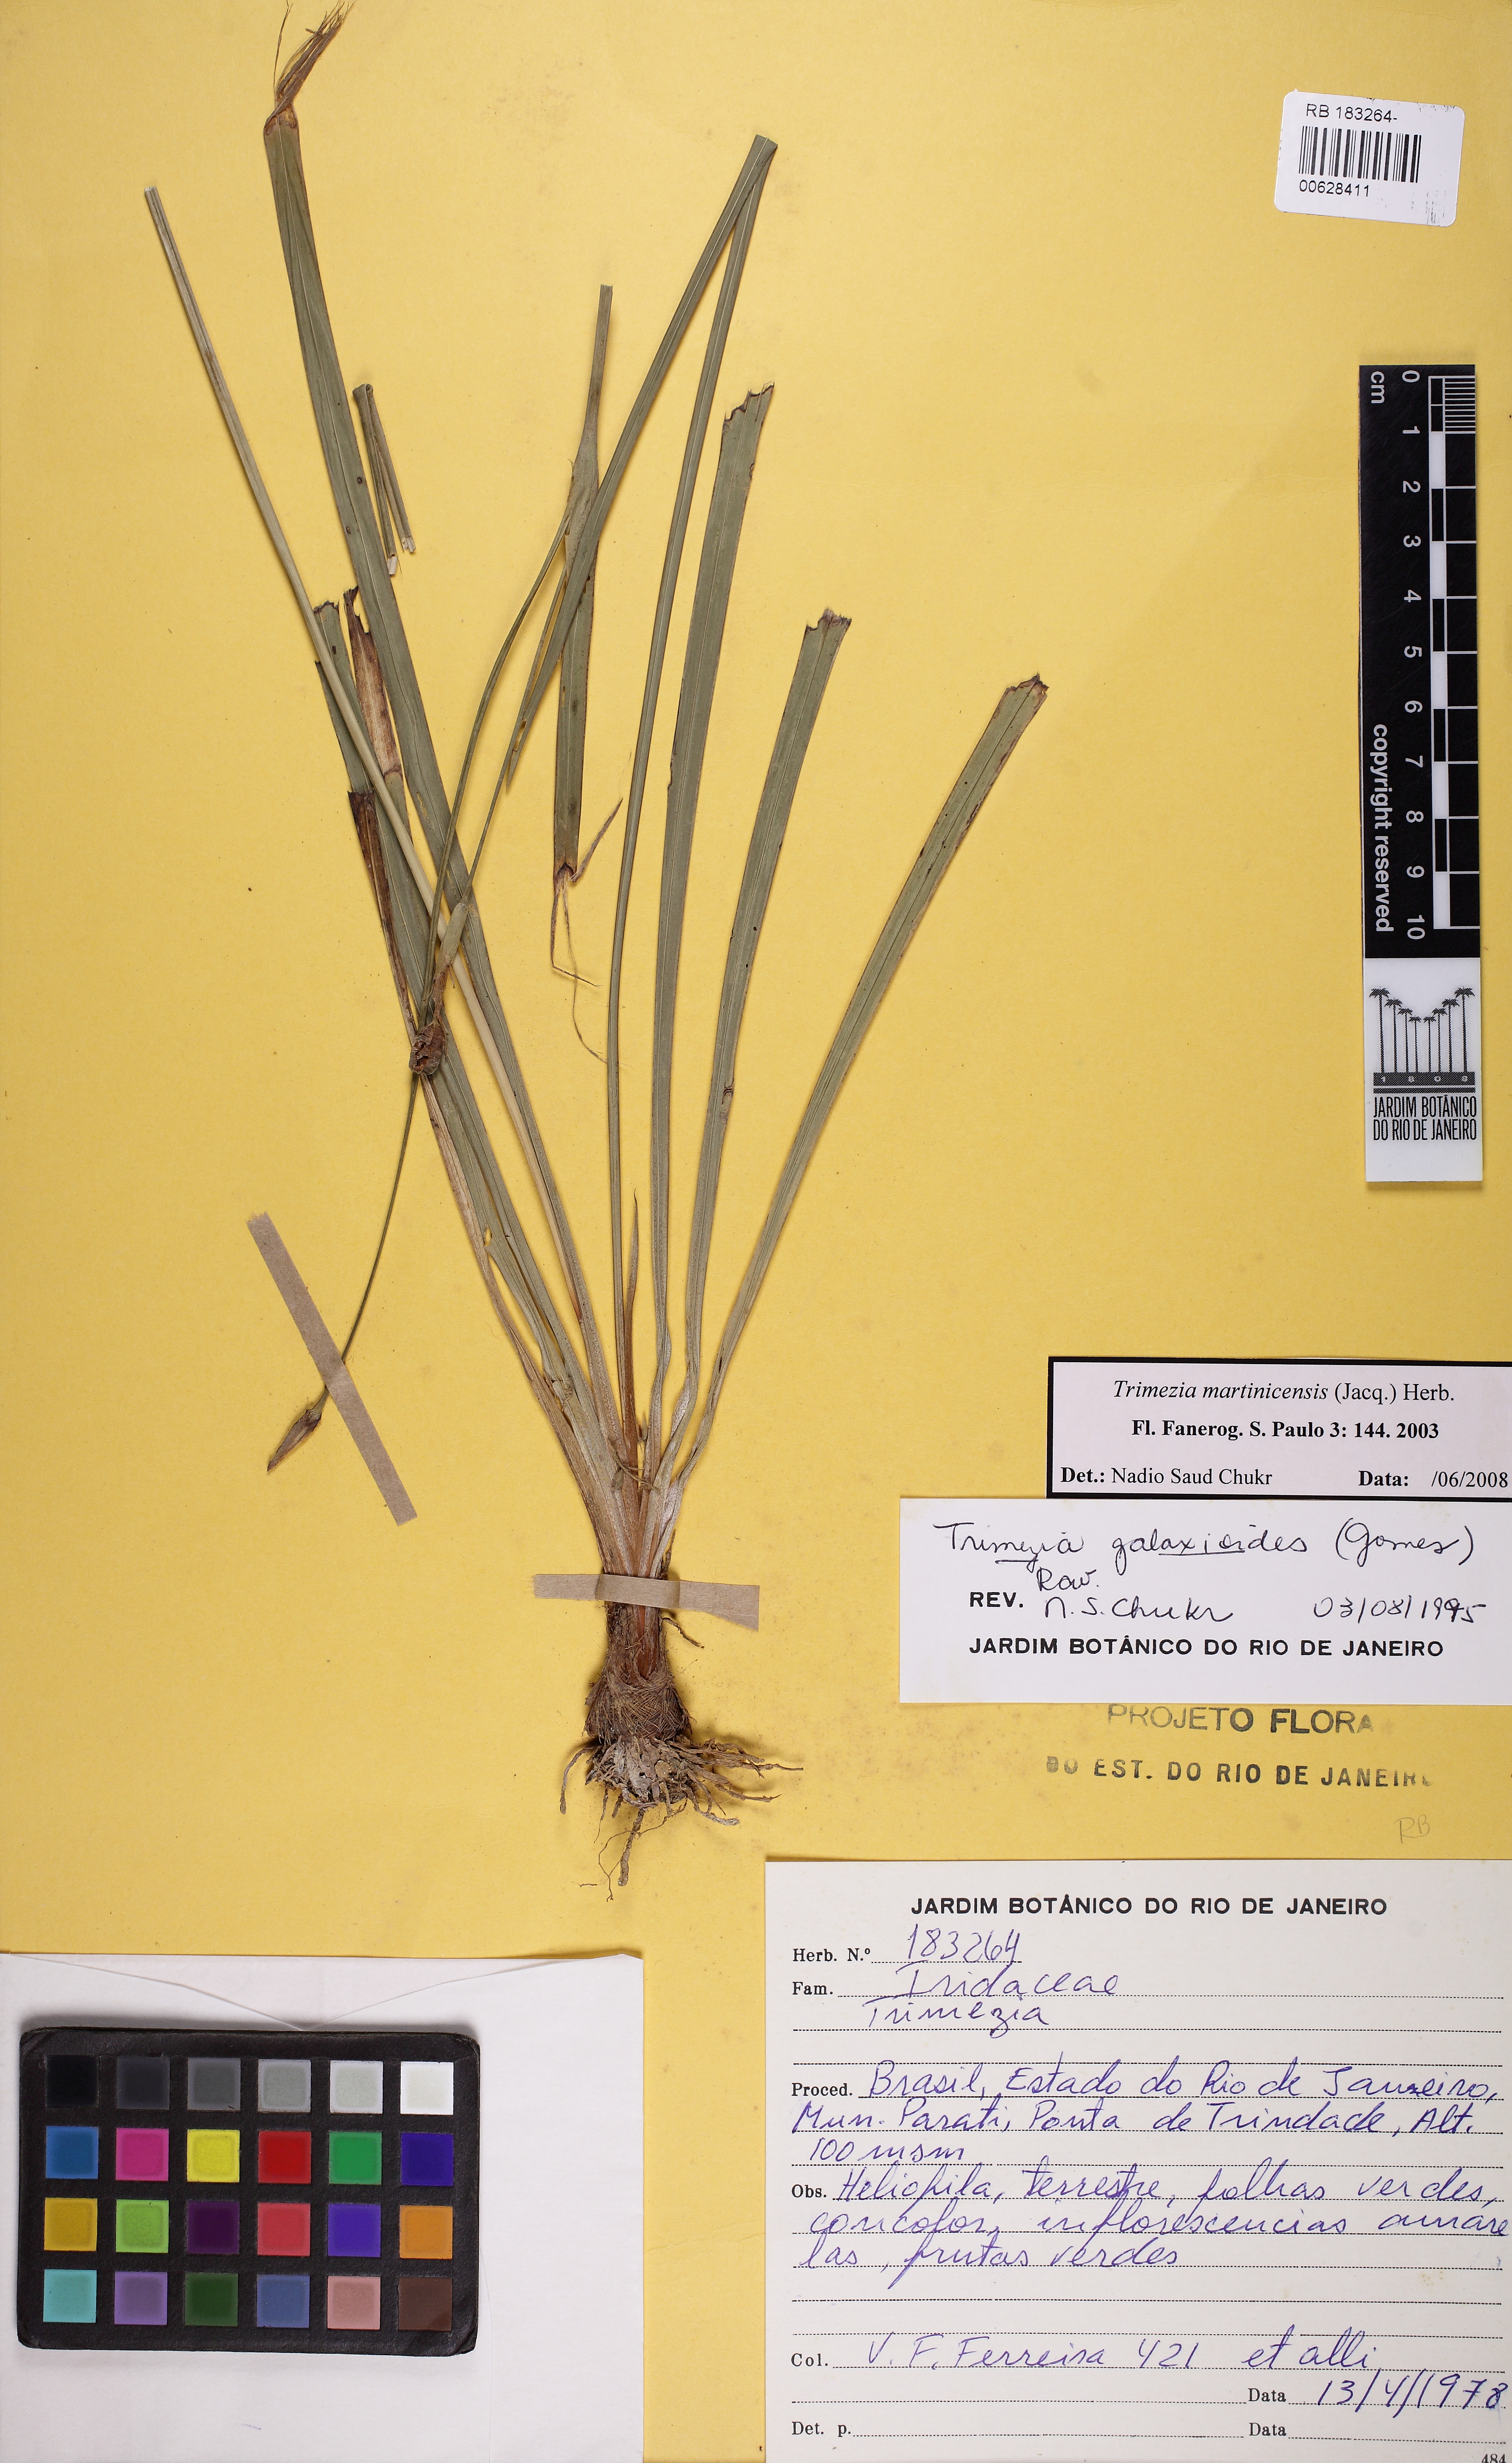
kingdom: Plantae
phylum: Tracheophyta
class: Liliopsida
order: Asparagales
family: Iridaceae
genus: Trimezia
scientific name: Trimezia martinicensis
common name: Martinique trimezia
